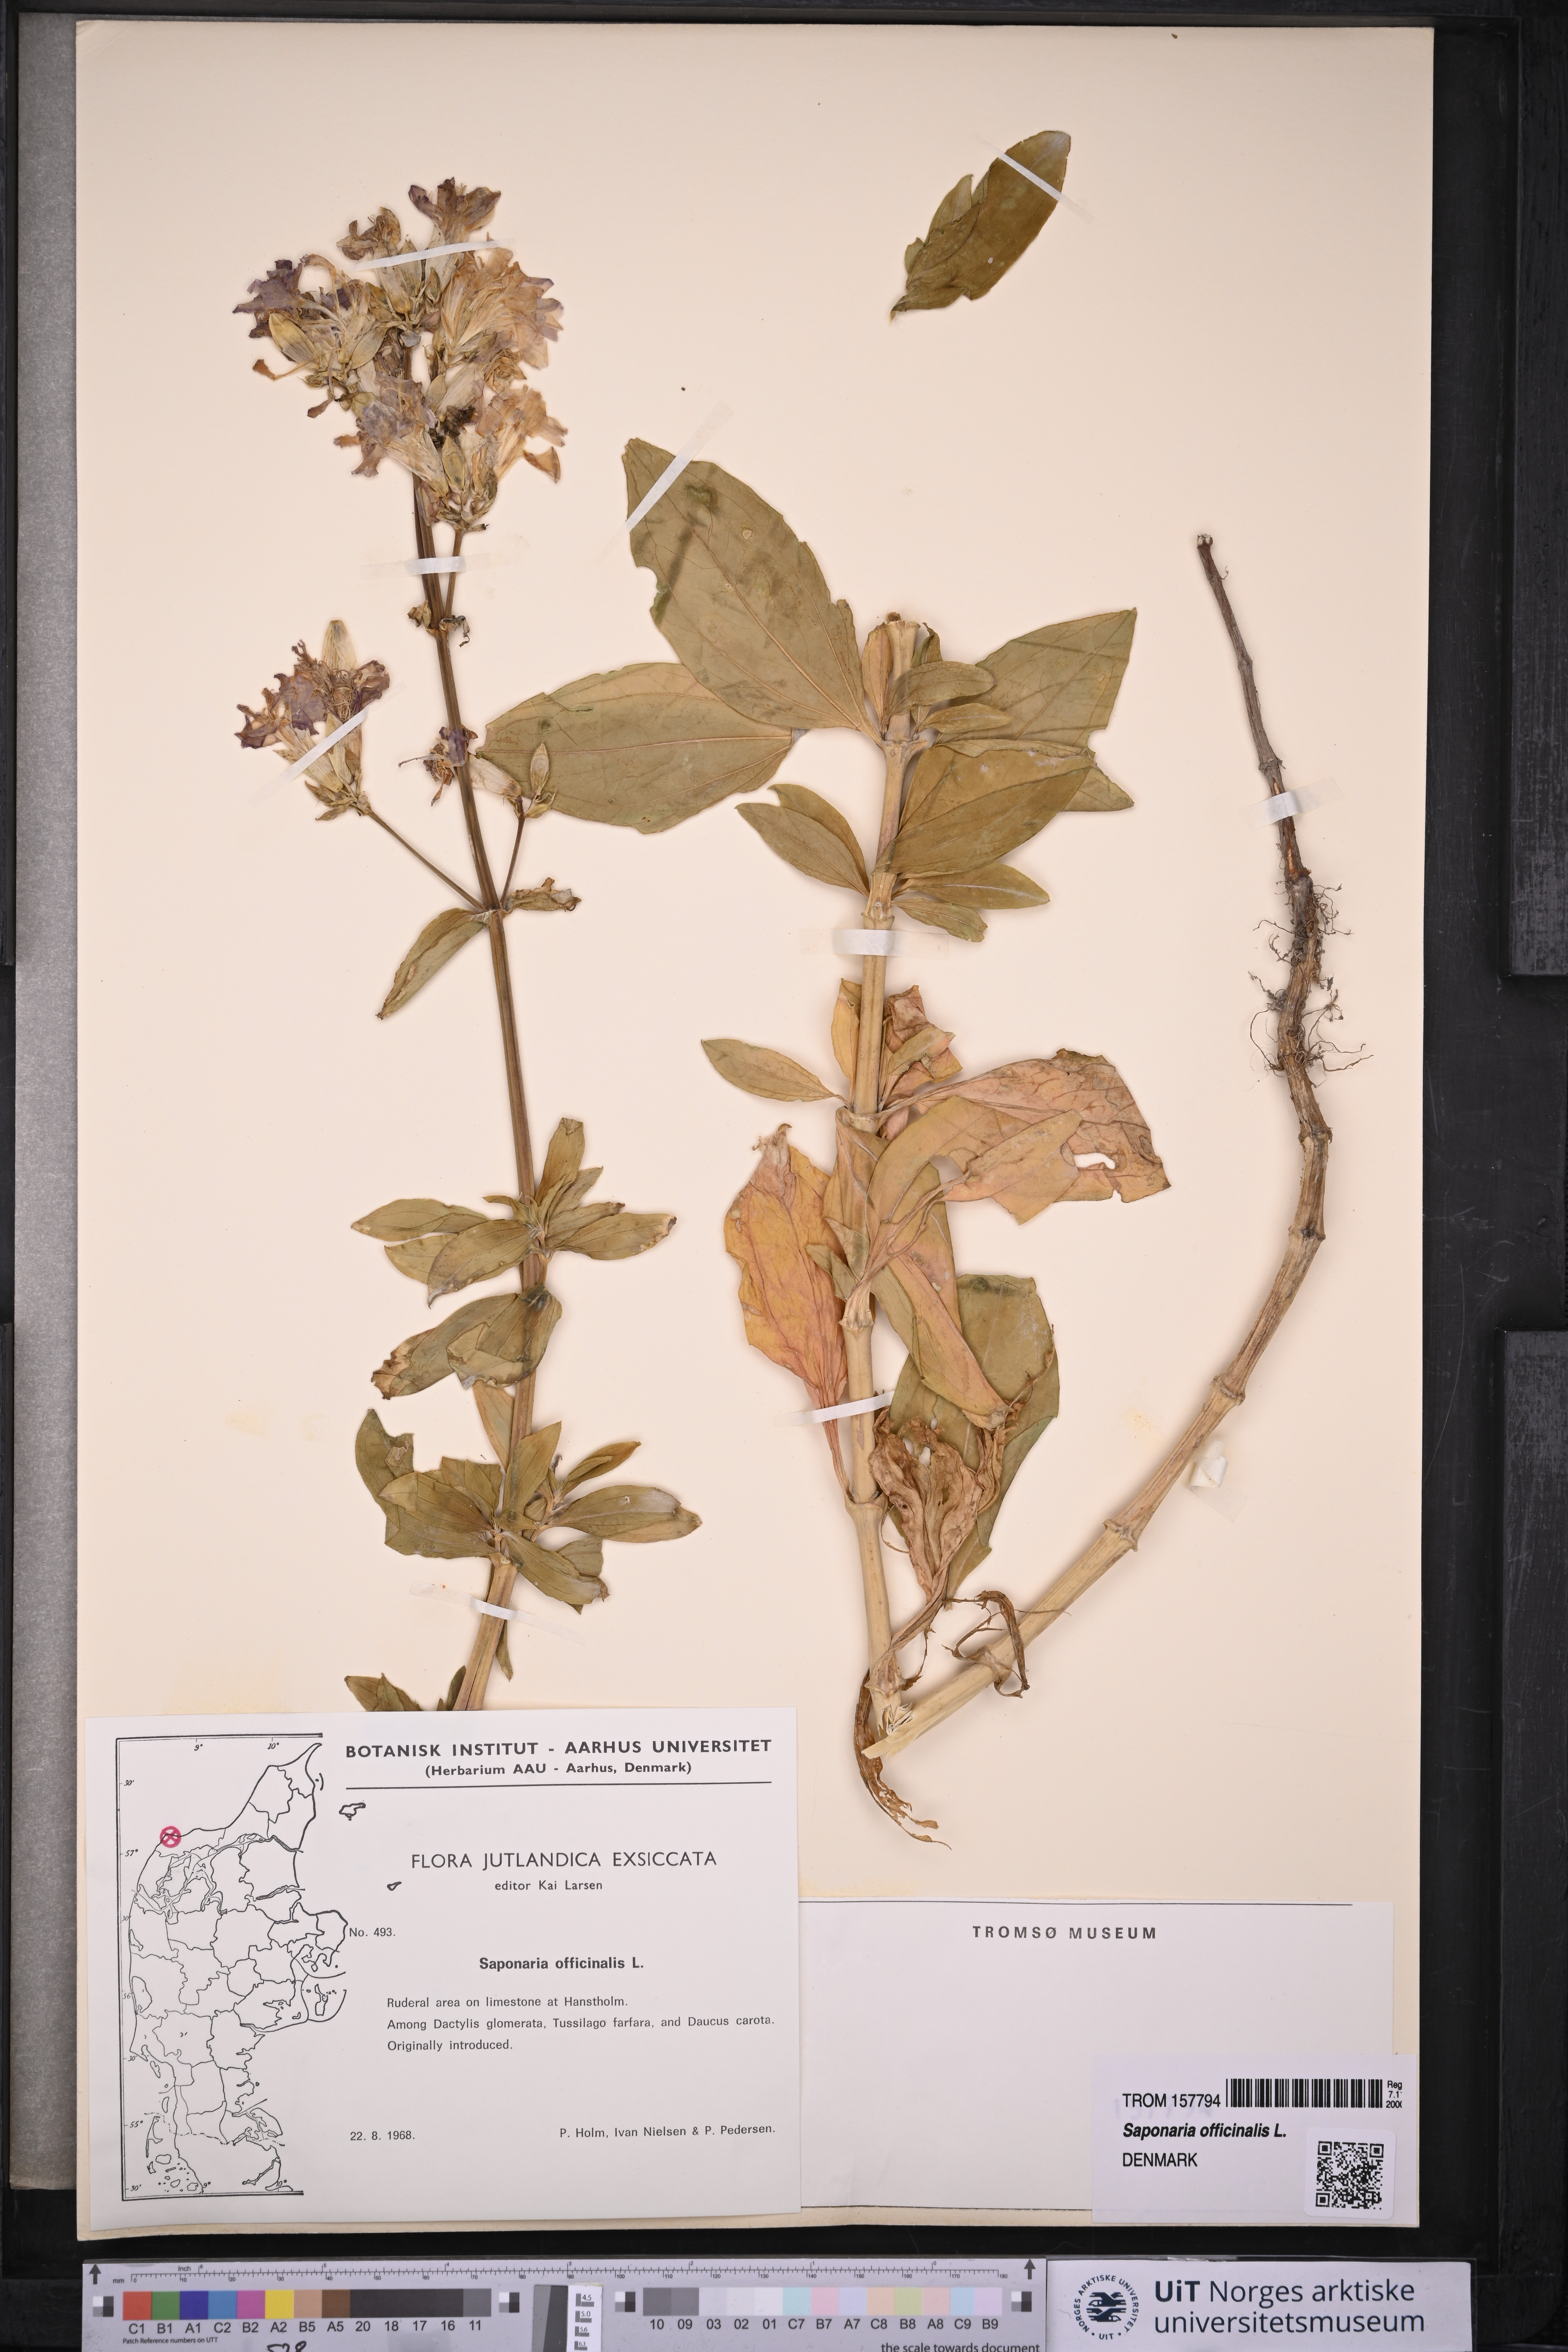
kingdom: Plantae
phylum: Tracheophyta
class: Magnoliopsida
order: Caryophyllales
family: Caryophyllaceae
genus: Saponaria
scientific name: Saponaria officinalis
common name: Soapwort
